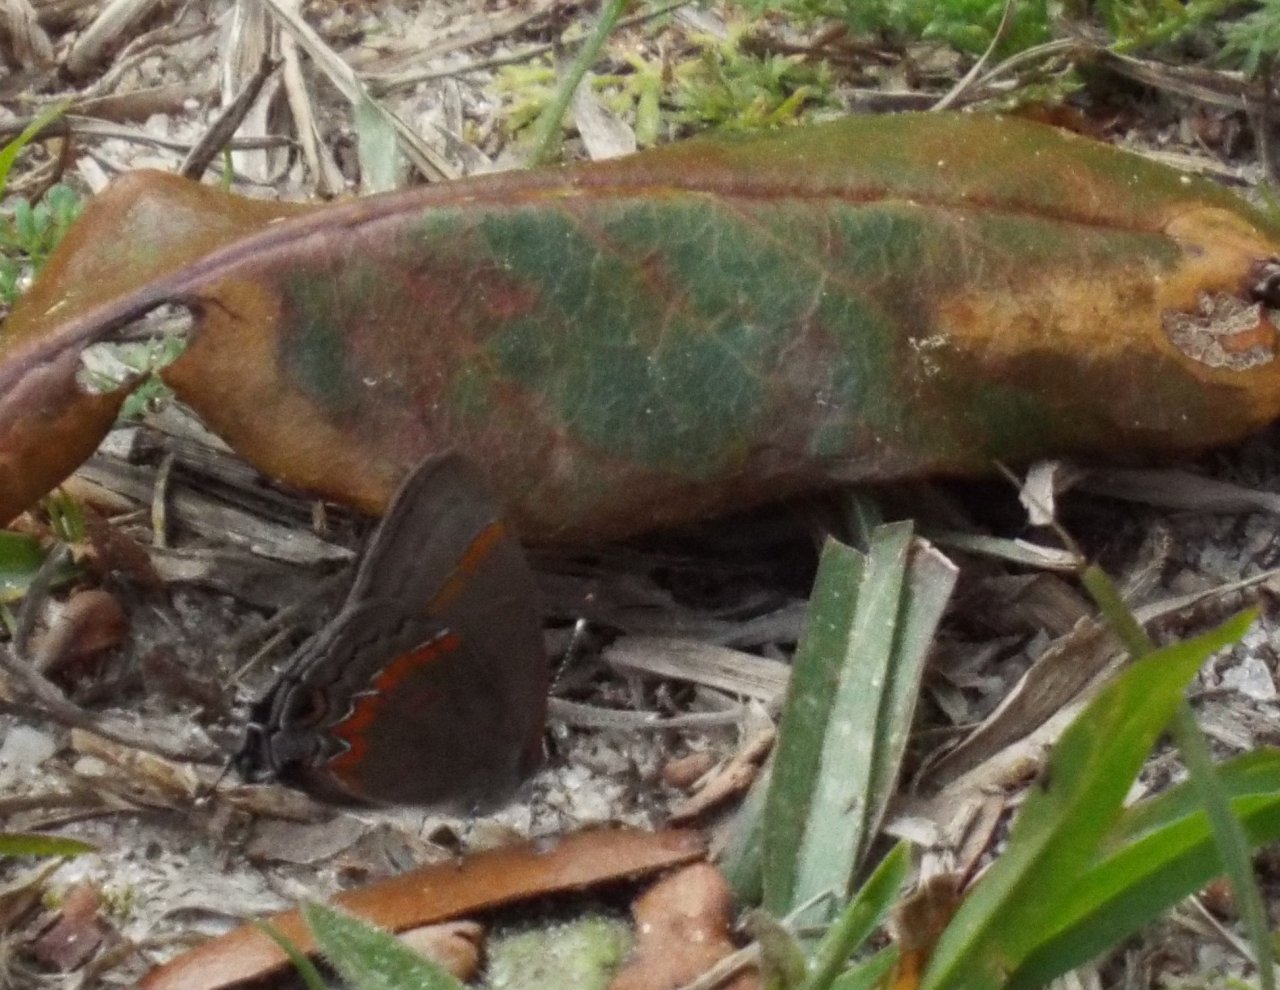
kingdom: Animalia
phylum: Arthropoda
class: Insecta
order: Lepidoptera
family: Lycaenidae
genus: Calycopis
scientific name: Calycopis cecrops
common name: Red-banded Hairstreak
